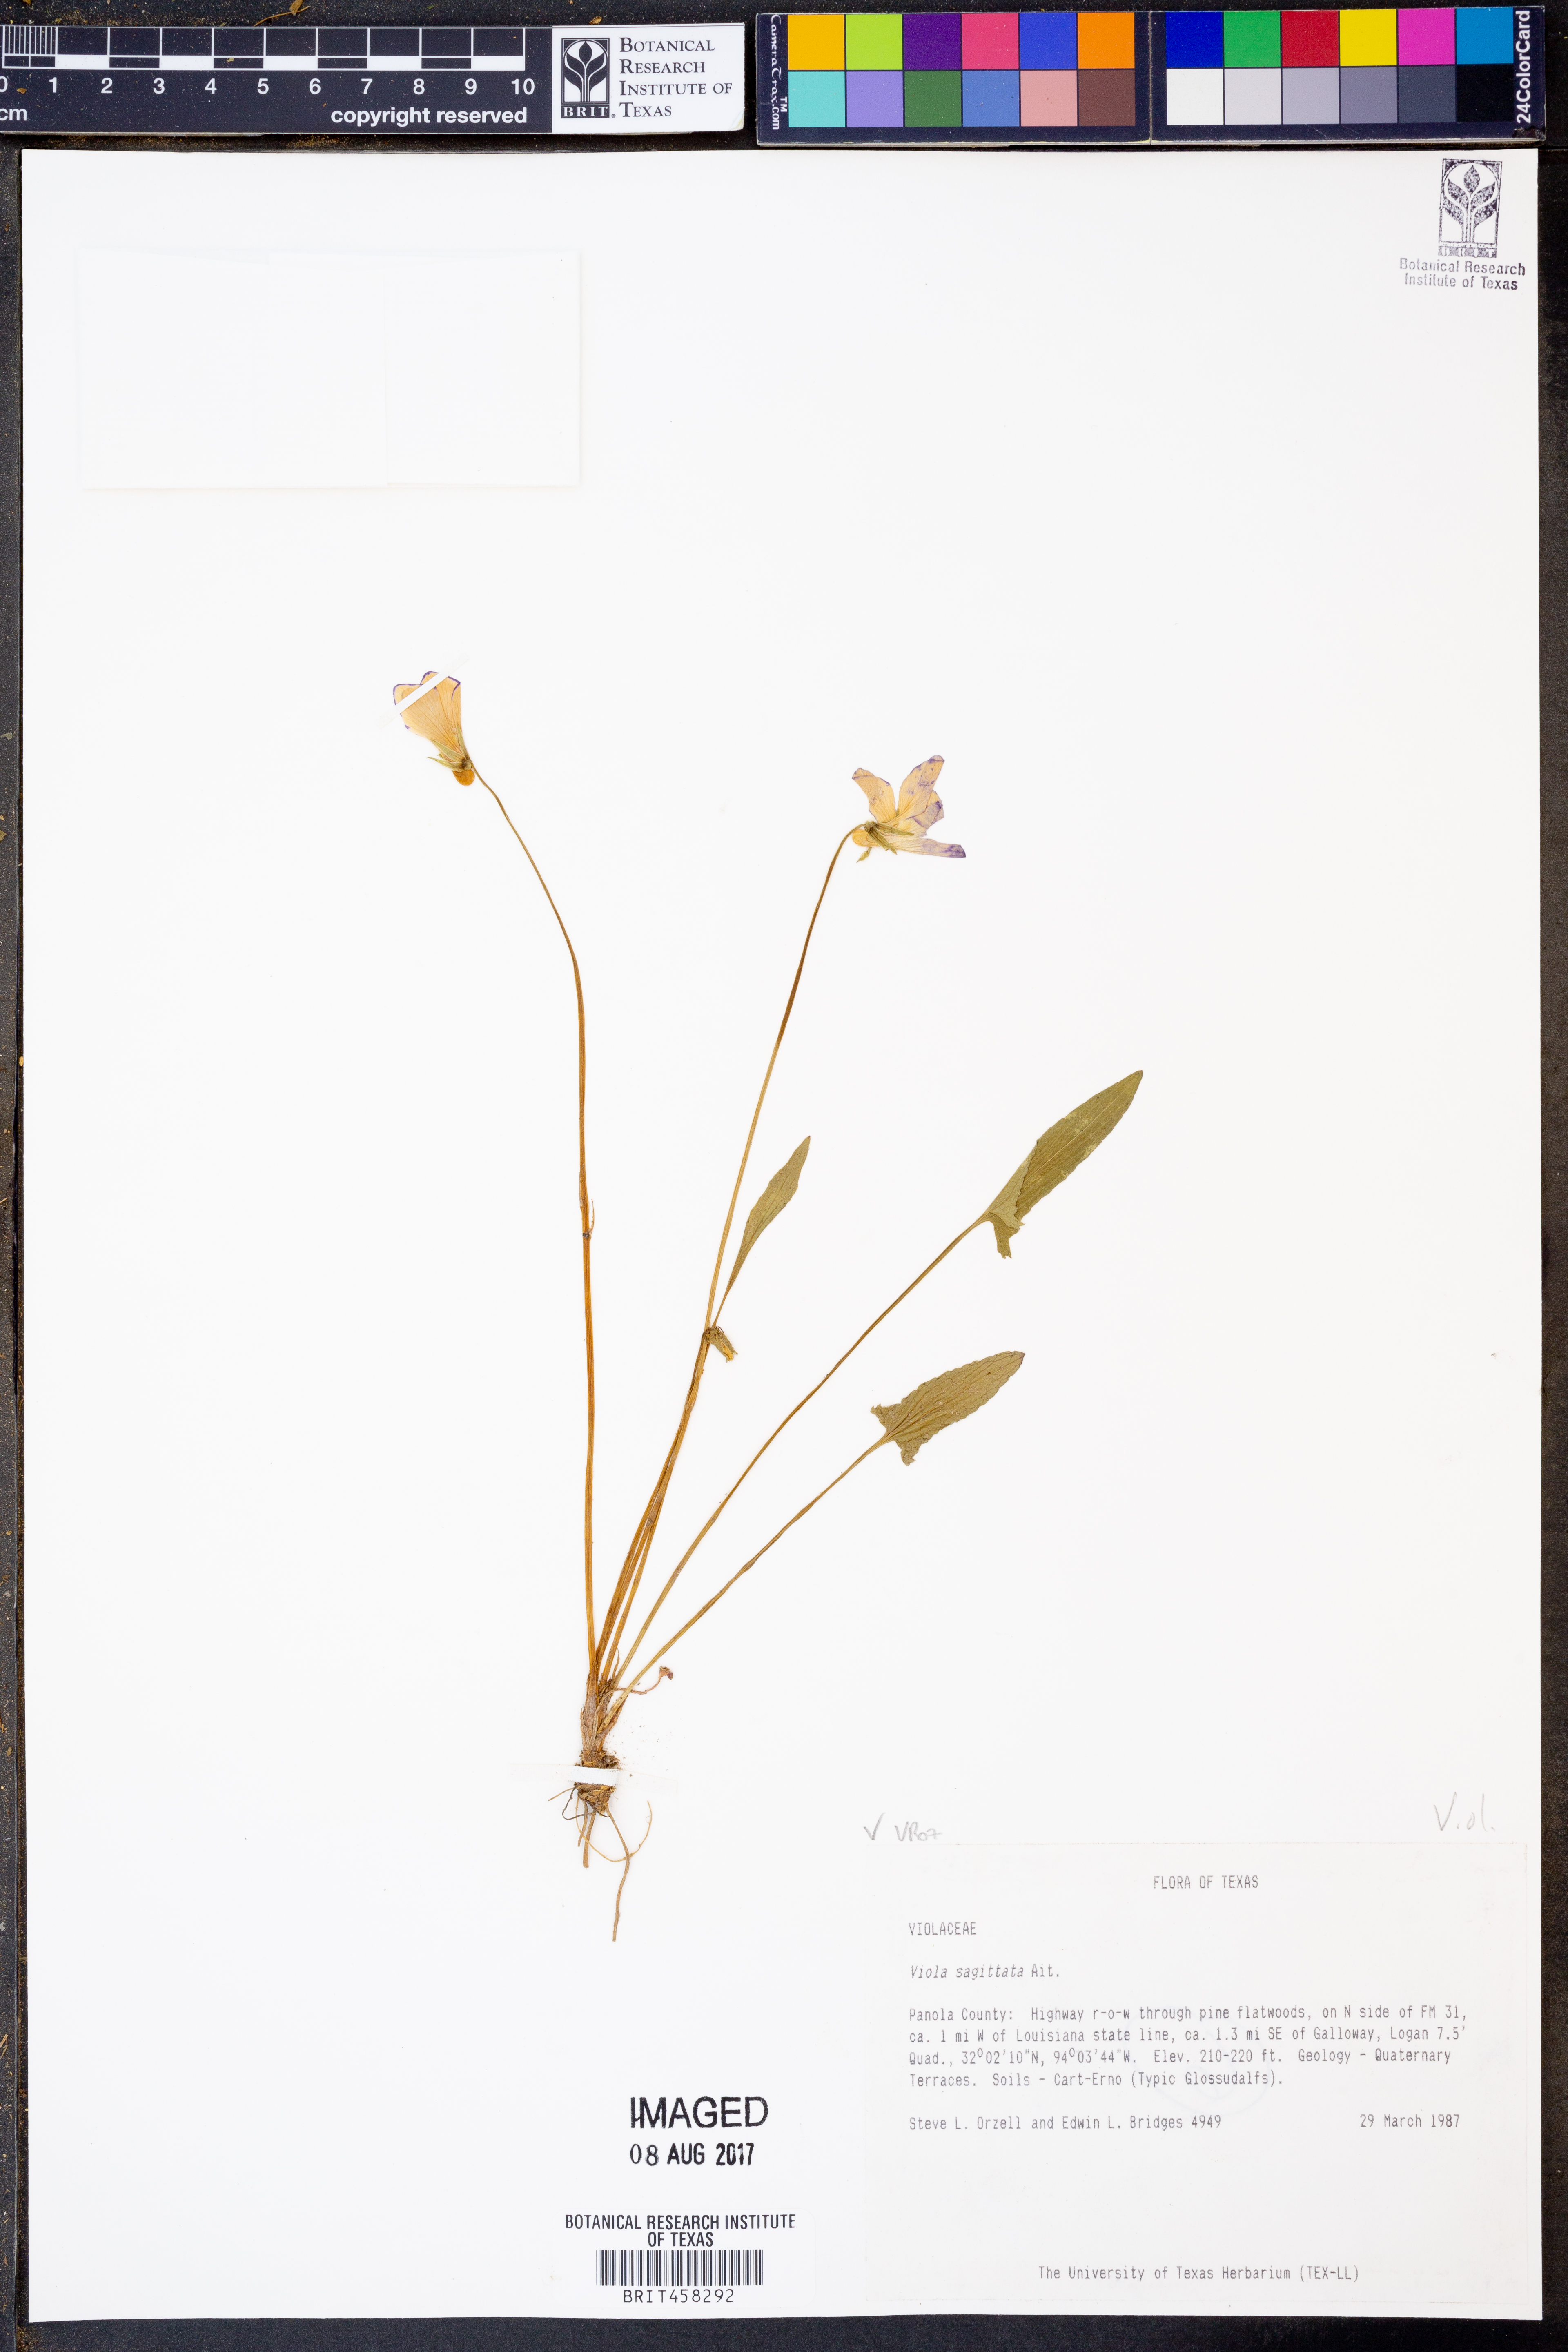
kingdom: Plantae
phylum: Tracheophyta
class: Magnoliopsida
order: Malpighiales
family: Violaceae
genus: Viola
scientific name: Viola sagittata
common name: Arrowhead violet
